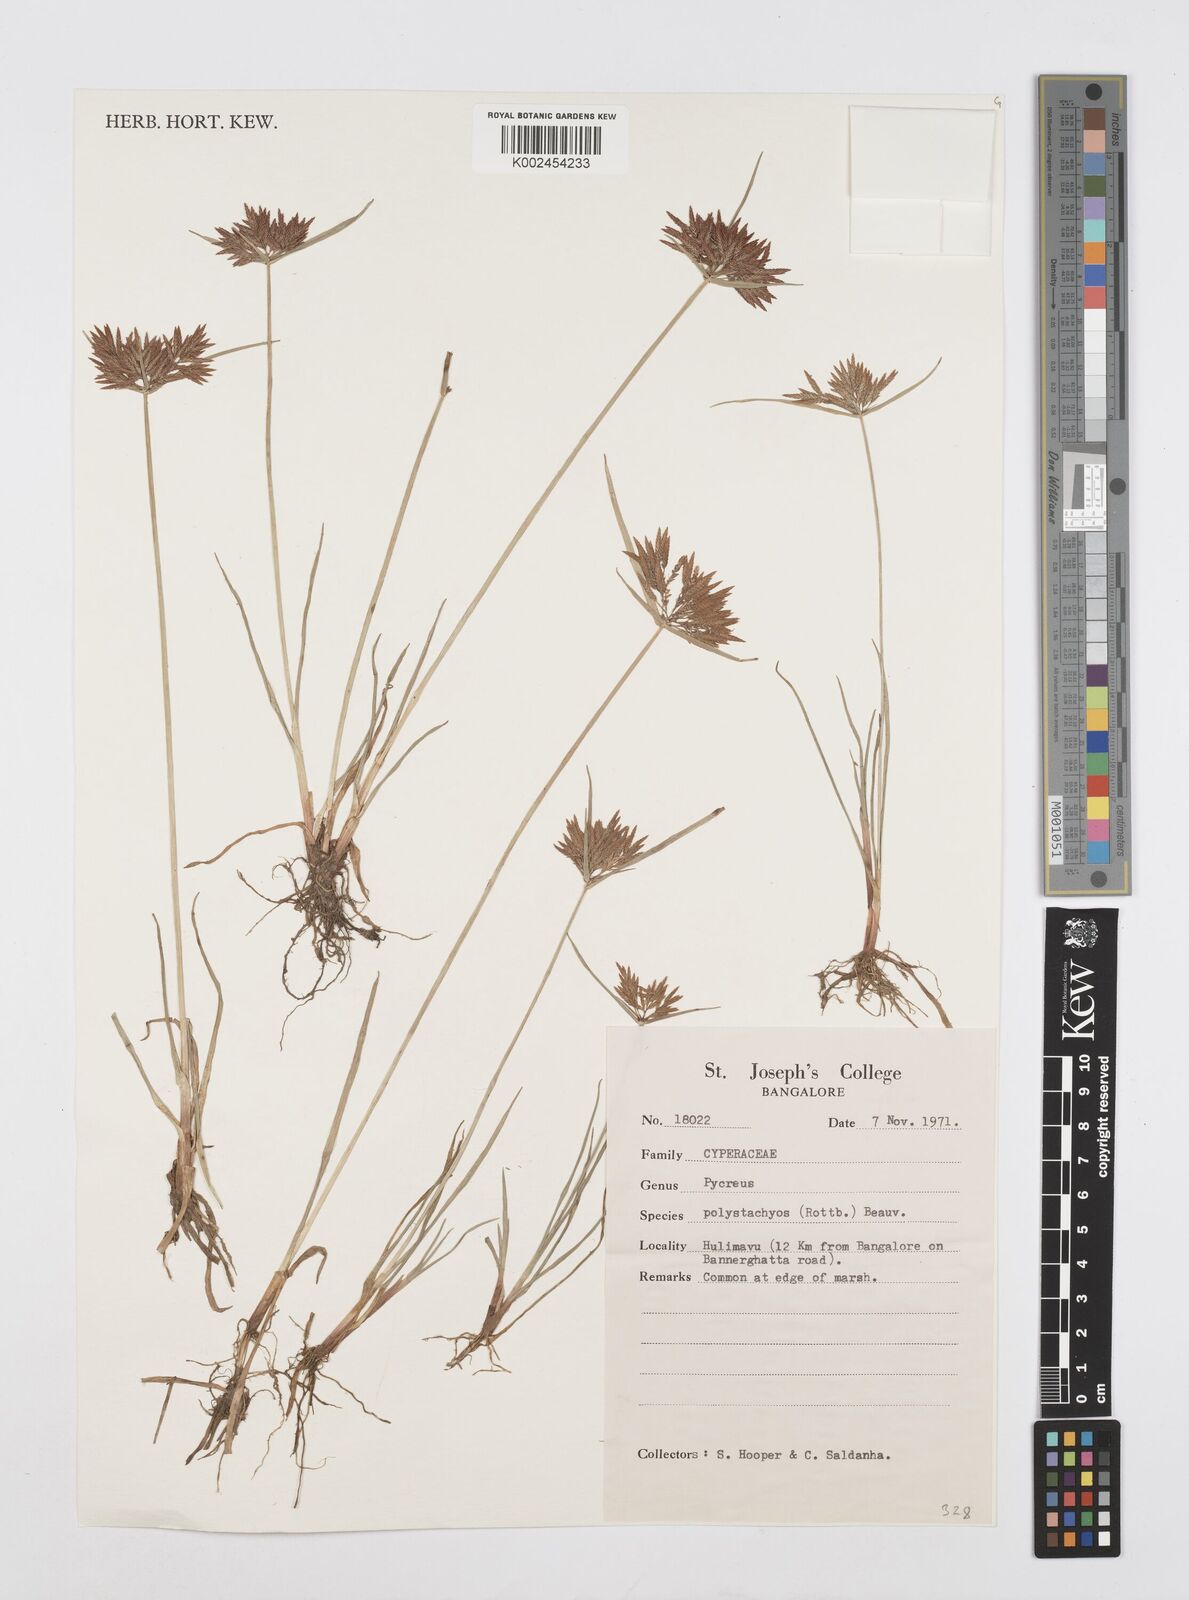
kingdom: Plantae
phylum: Tracheophyta
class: Liliopsida
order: Poales
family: Cyperaceae
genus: Cyperus
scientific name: Cyperus polystachyos
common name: Bunchy flat sedge
